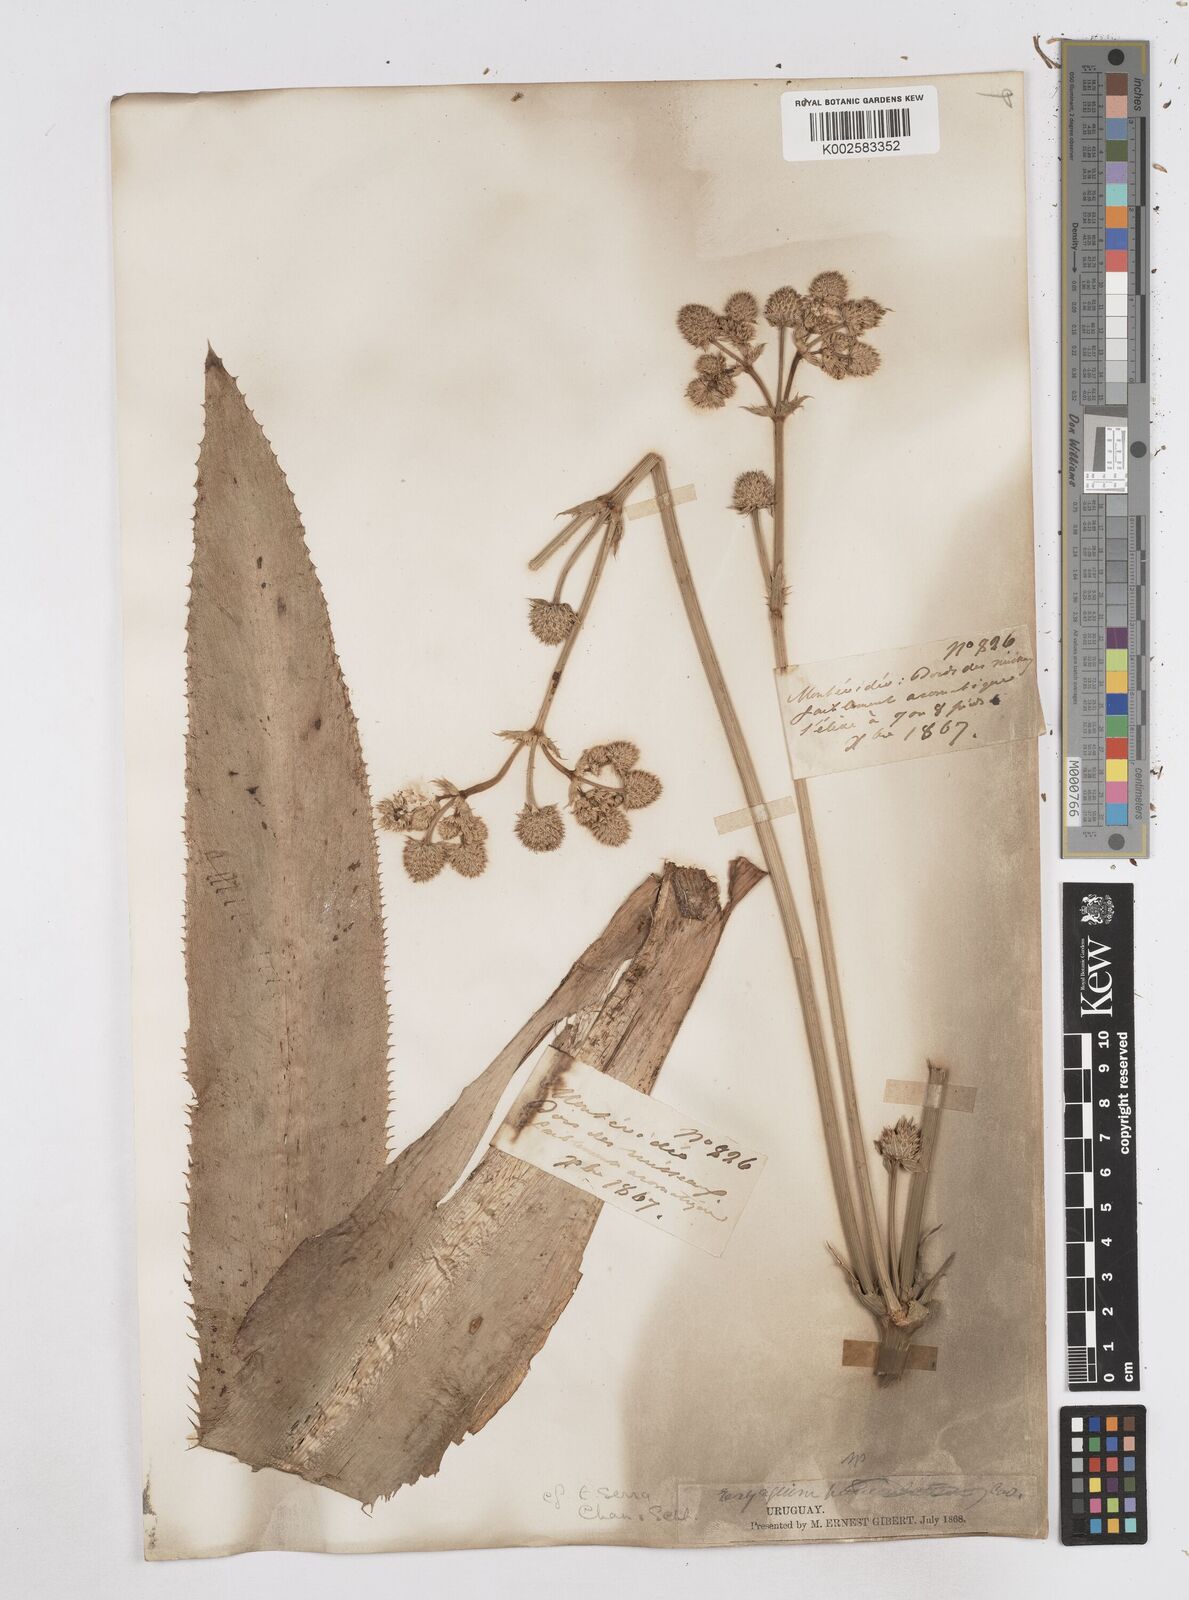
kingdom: Plantae
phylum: Tracheophyta
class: Magnoliopsida
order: Apiales
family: Apiaceae
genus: Eryngium
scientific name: Eryngium serra
